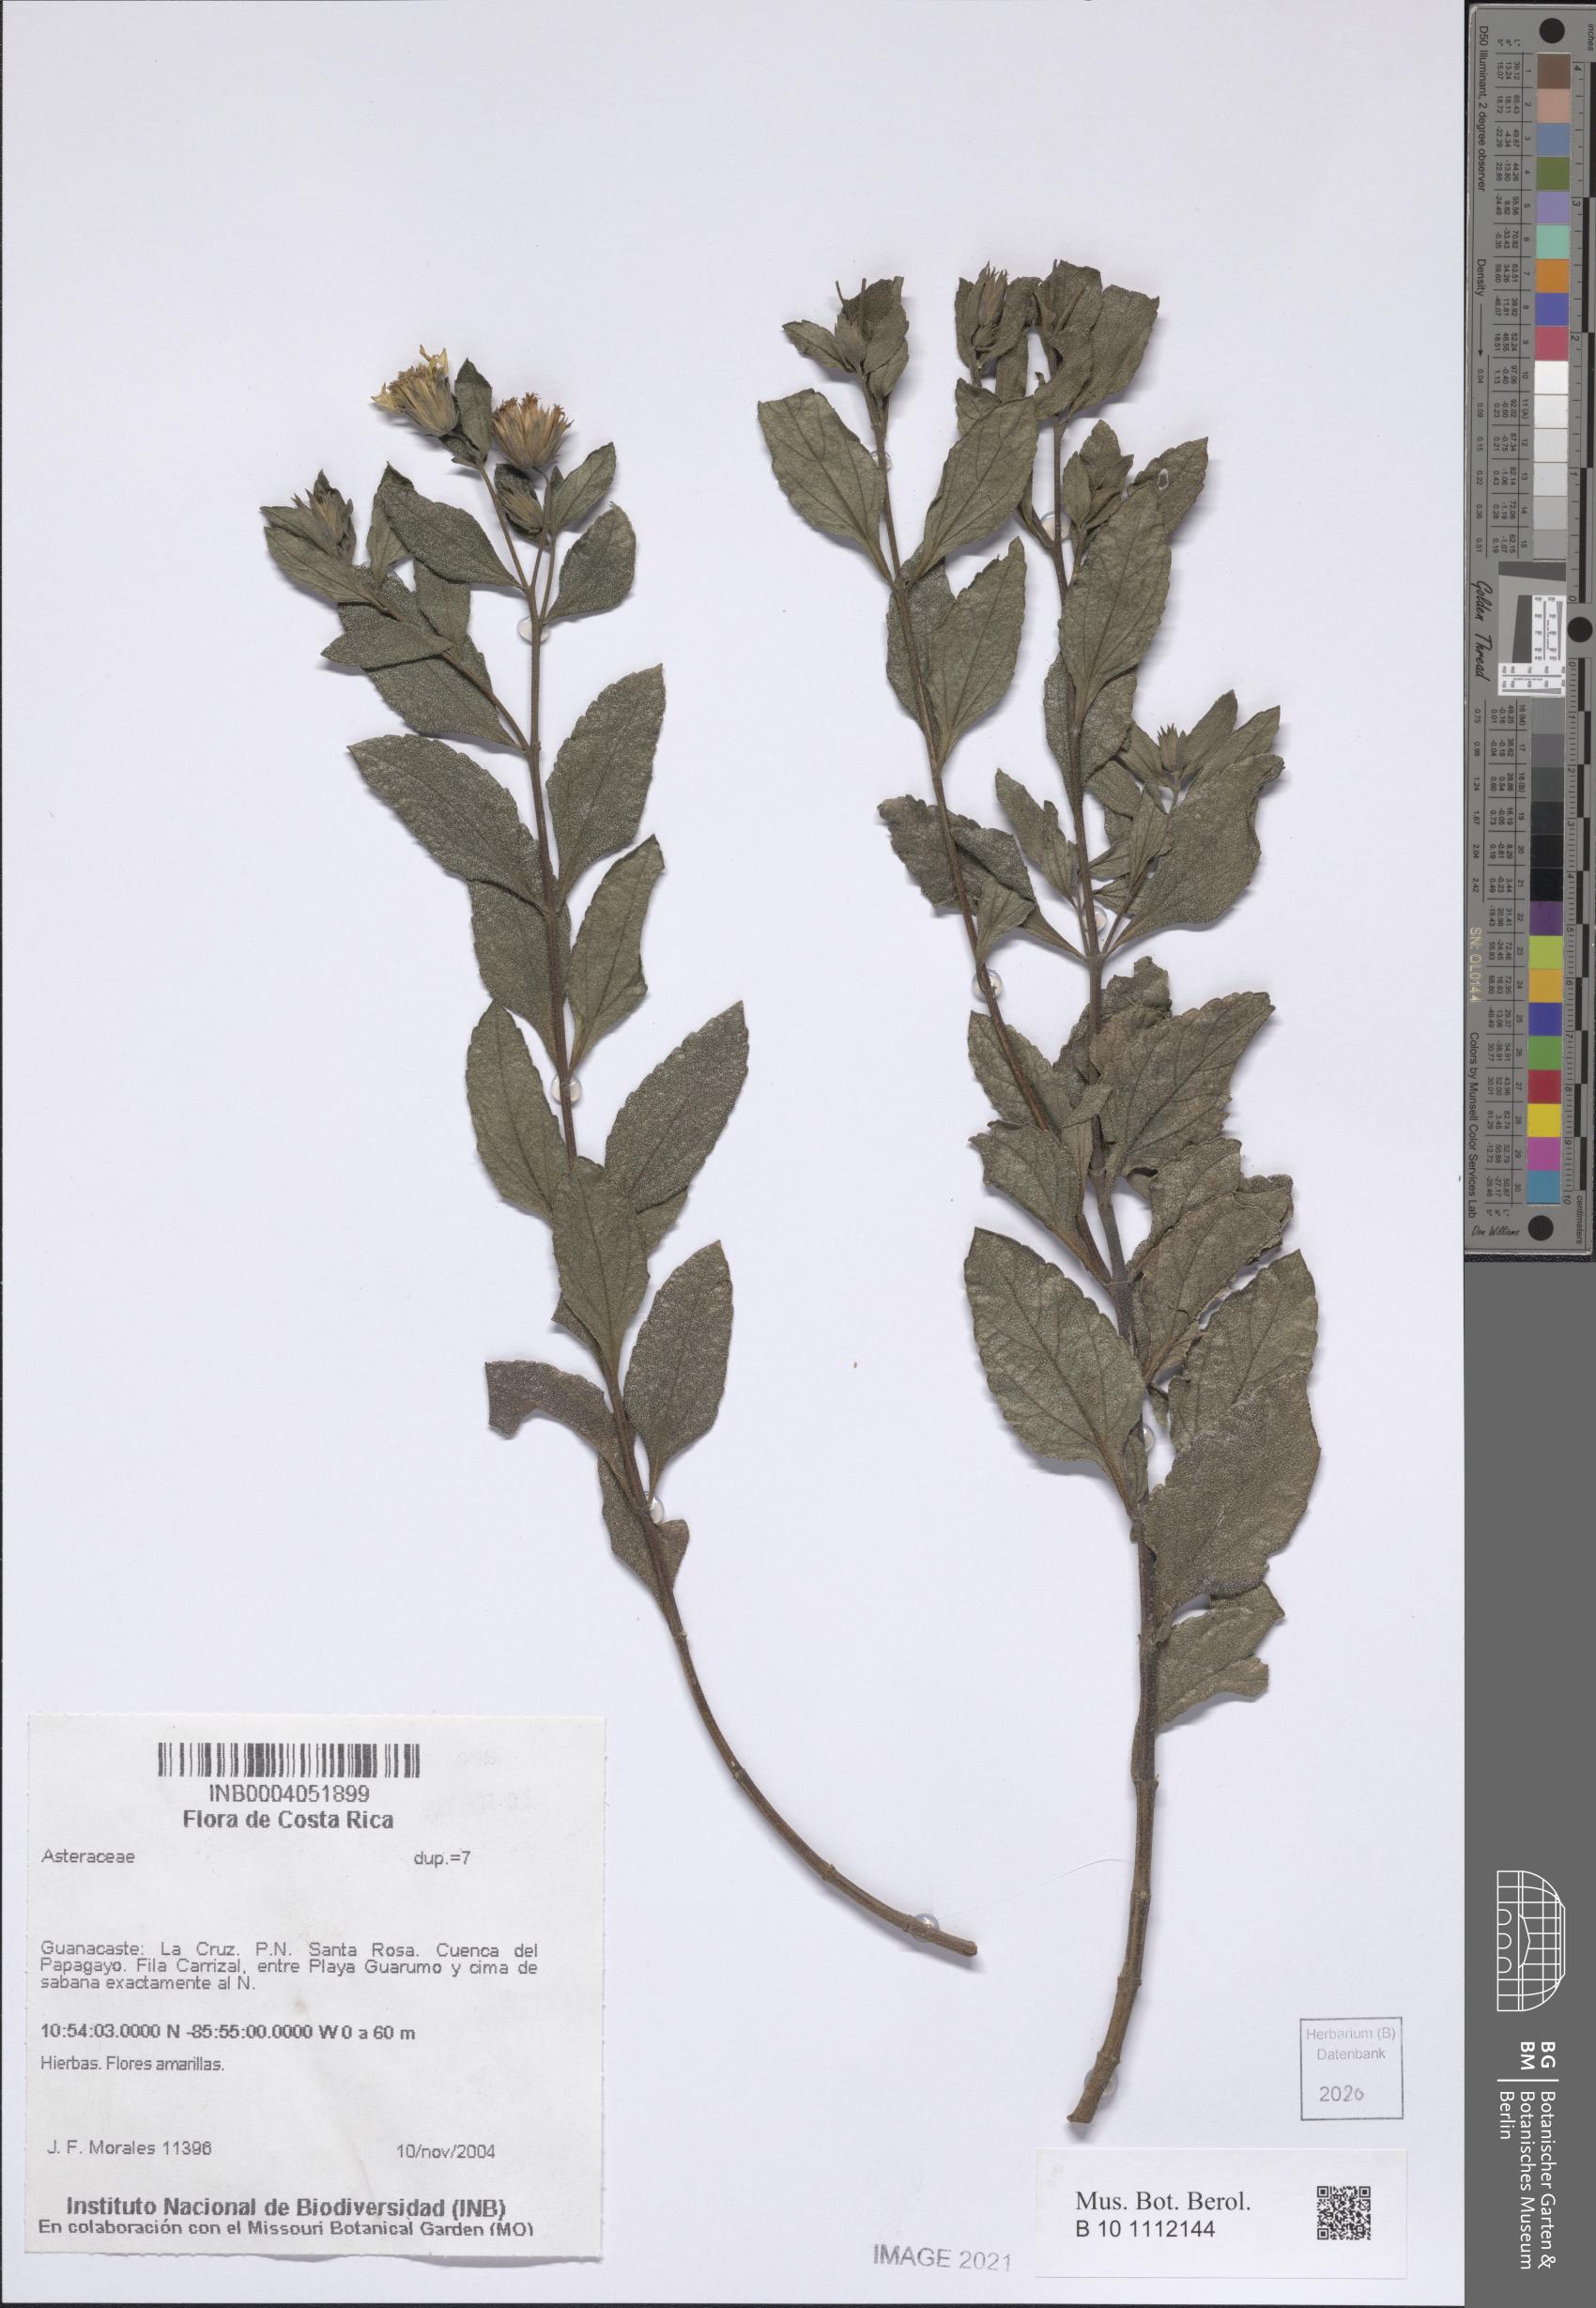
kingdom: Plantae
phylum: Tracheophyta
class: Magnoliopsida
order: Asterales
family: Asteraceae
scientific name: Asteraceae
